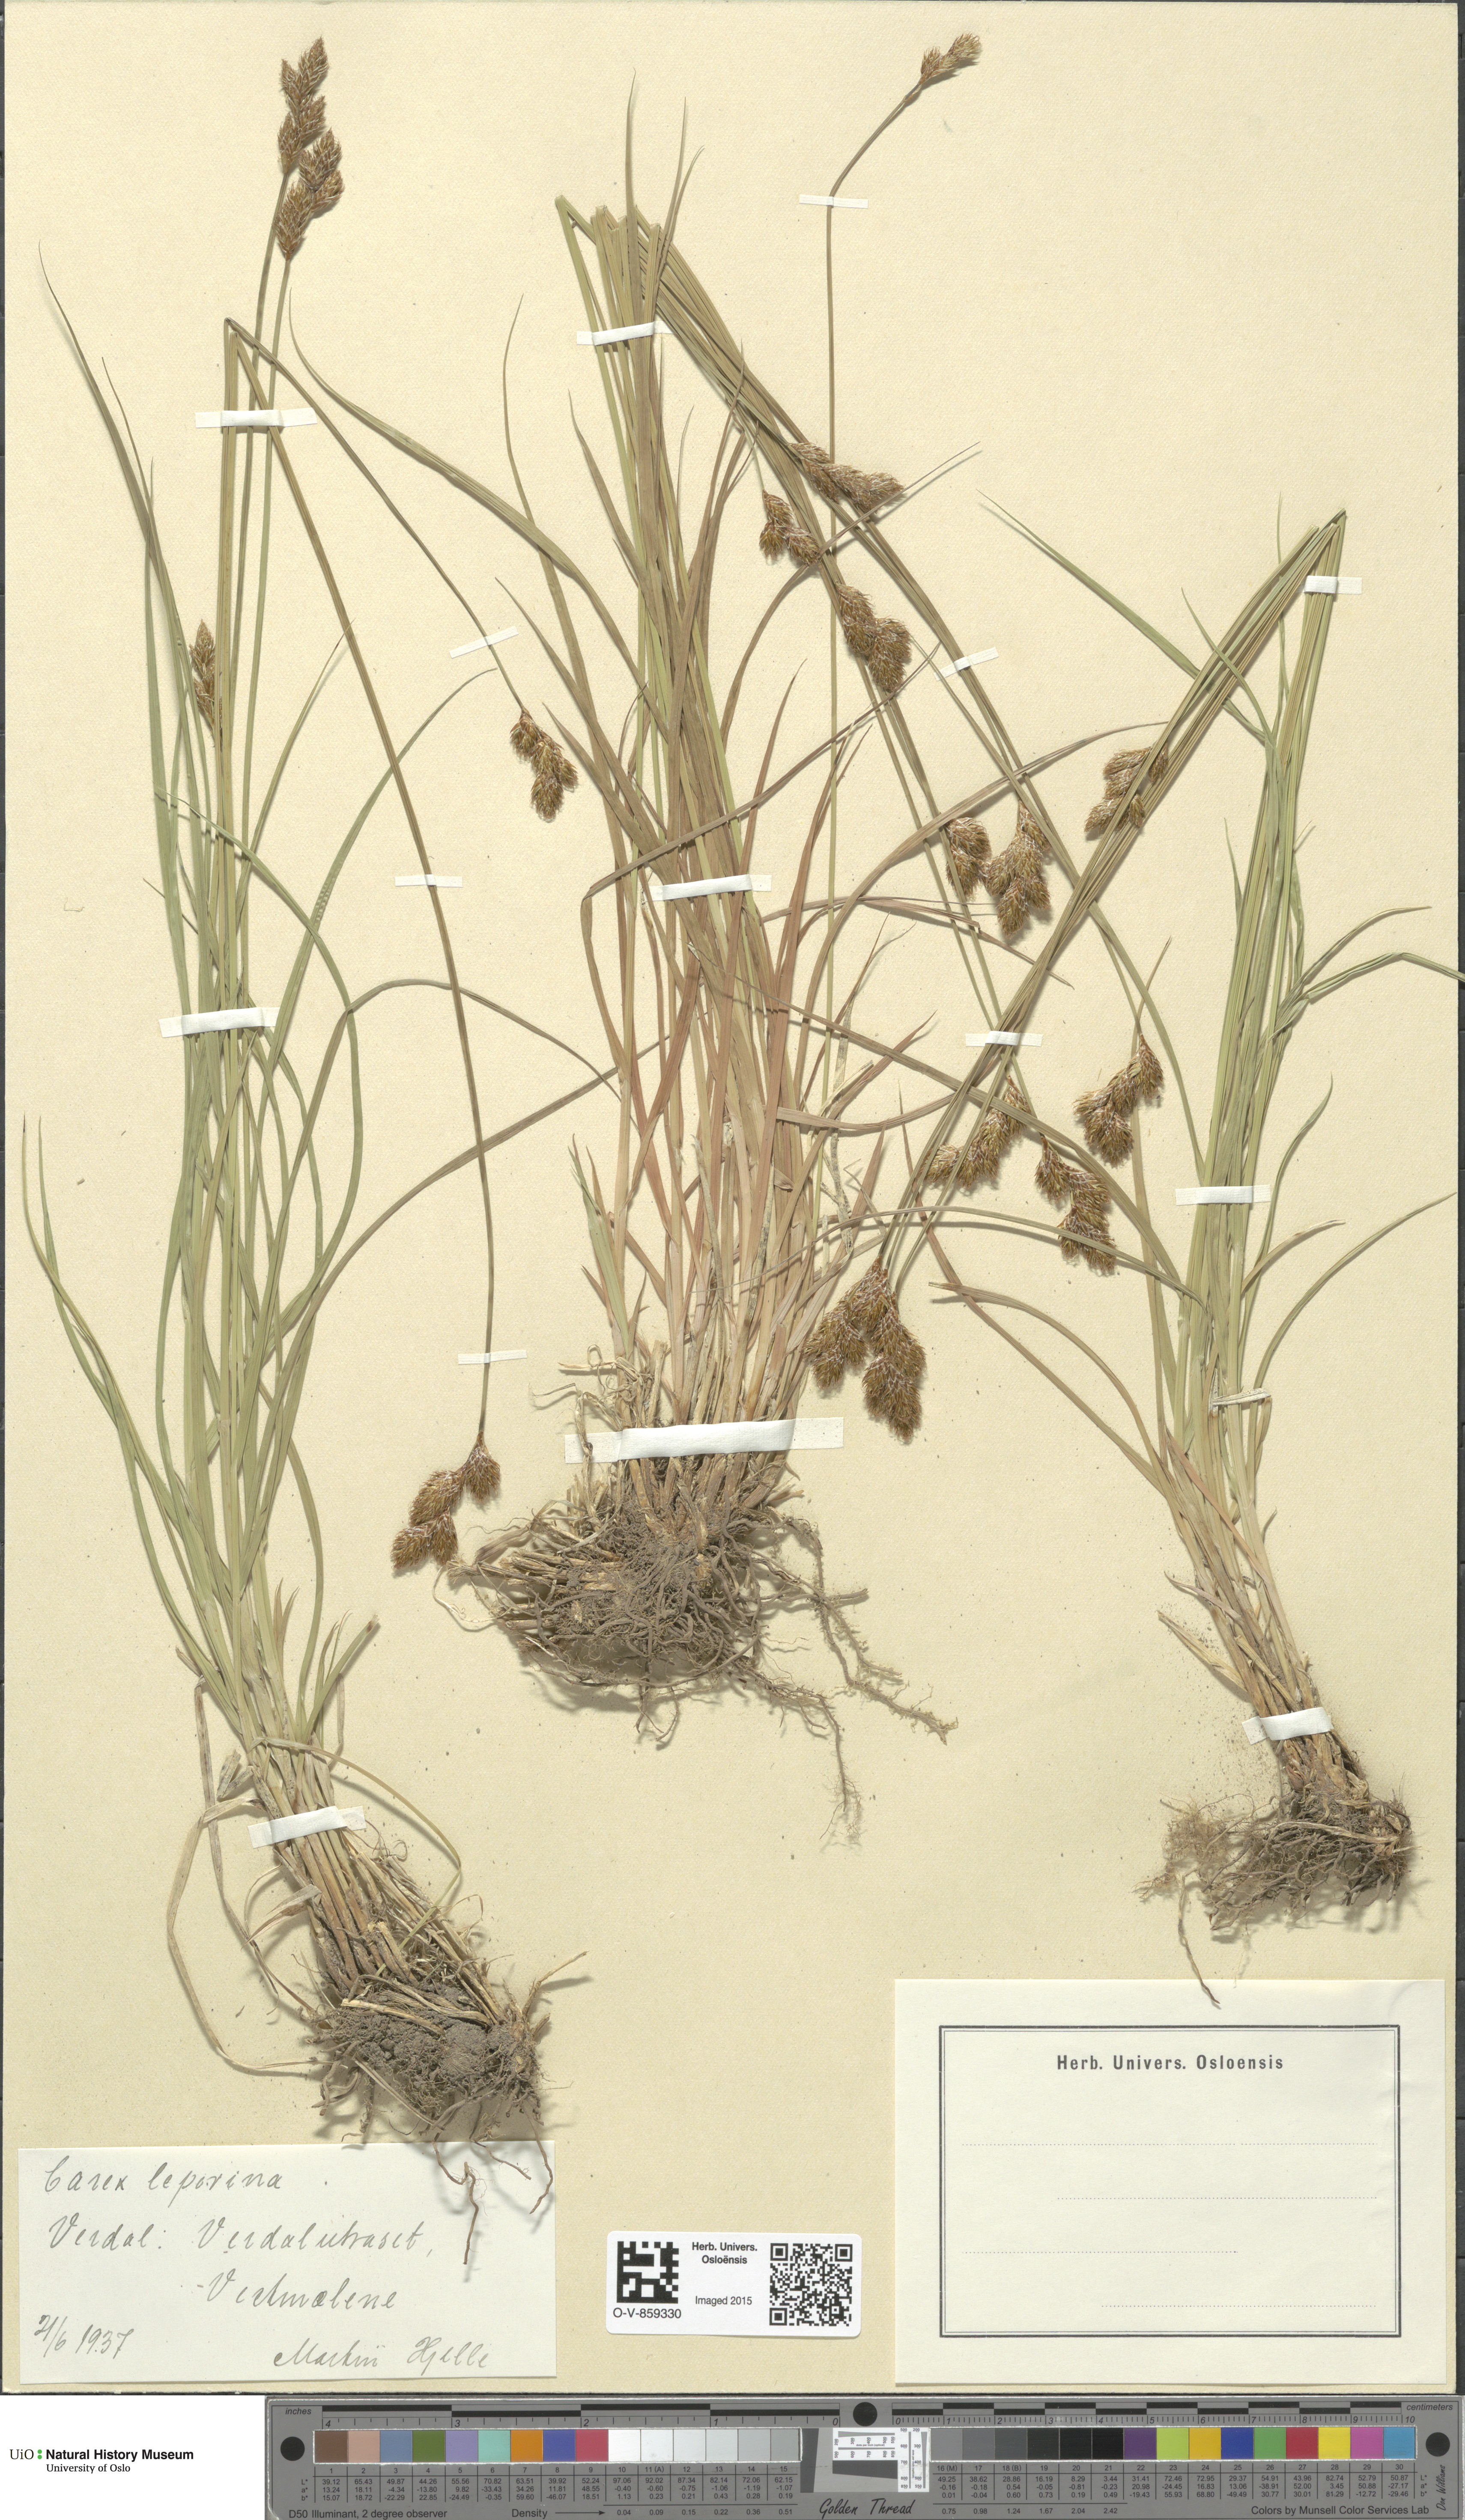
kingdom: Plantae
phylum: Tracheophyta
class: Liliopsida
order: Poales
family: Cyperaceae
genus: Carex
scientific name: Carex leporina
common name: Oval sedge
